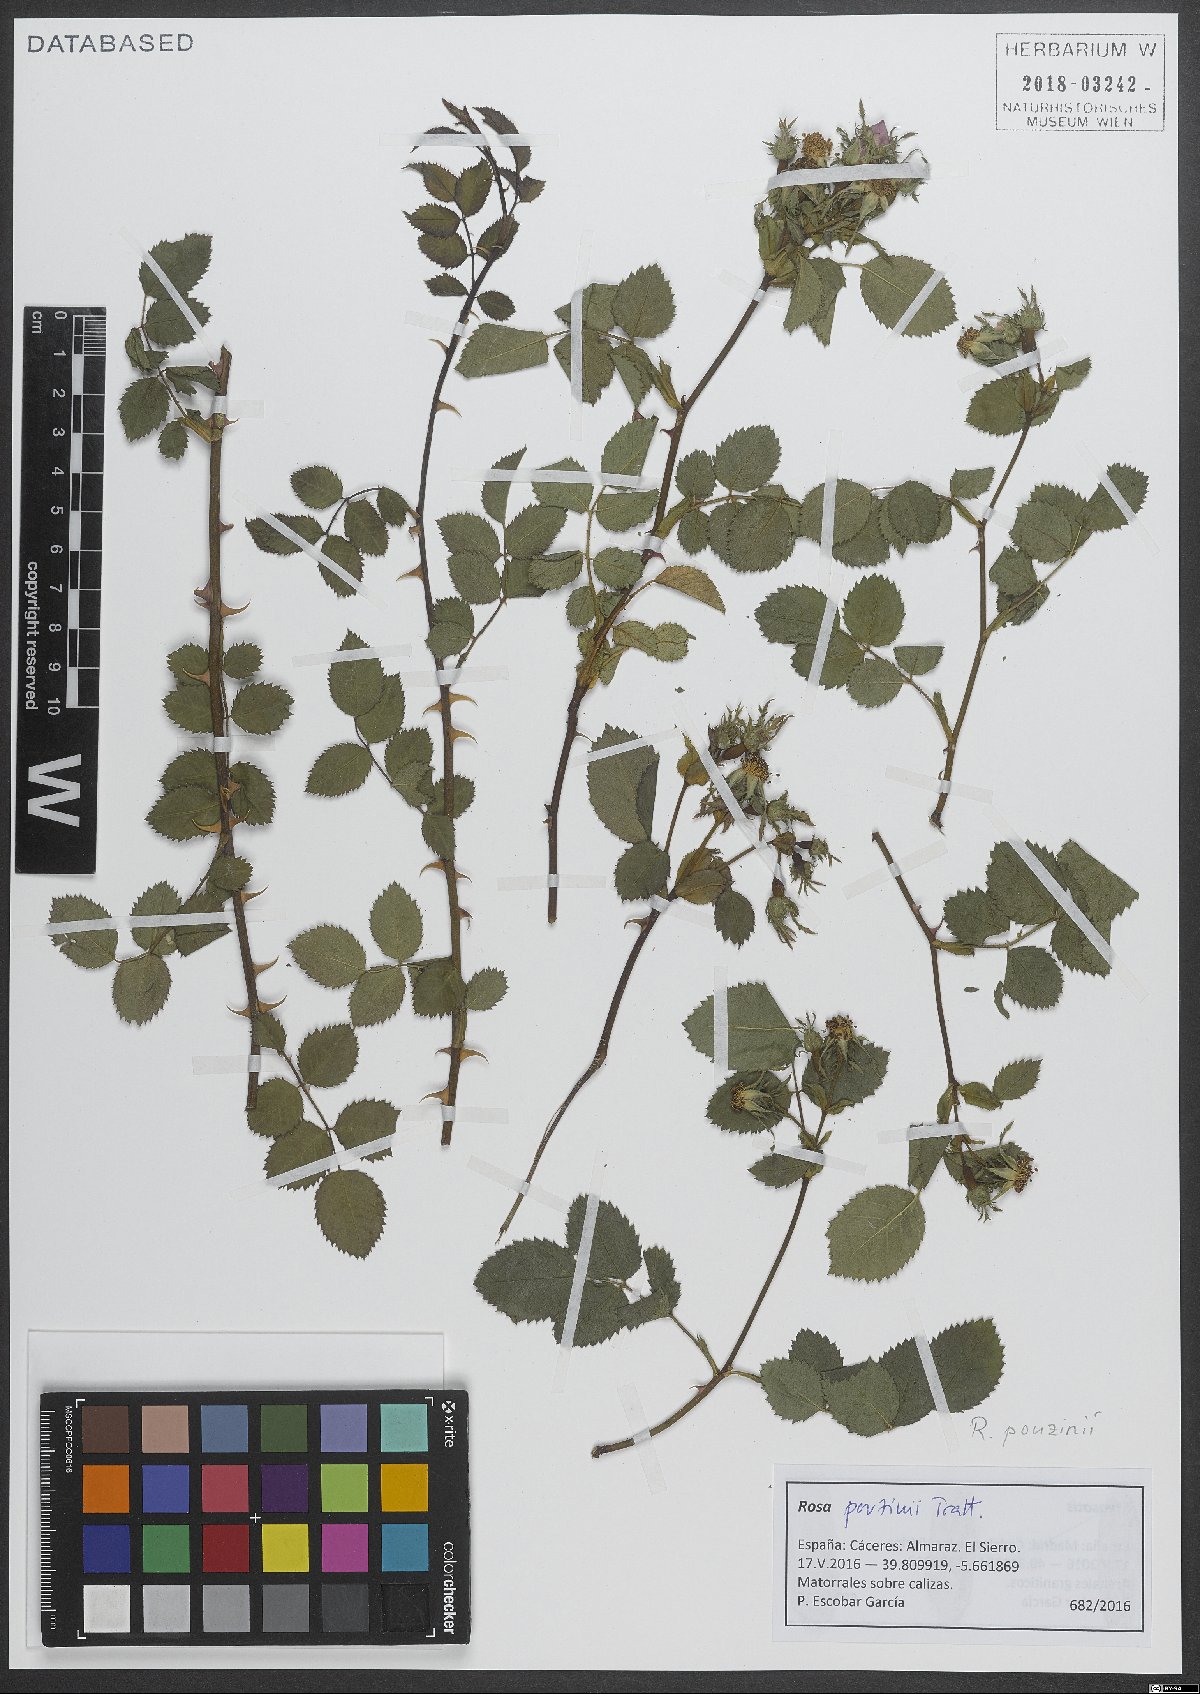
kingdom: Plantae
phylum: Tracheophyta
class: Magnoliopsida
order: Rosales
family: Rosaceae
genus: Rosa
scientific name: Rosa pouzinii
